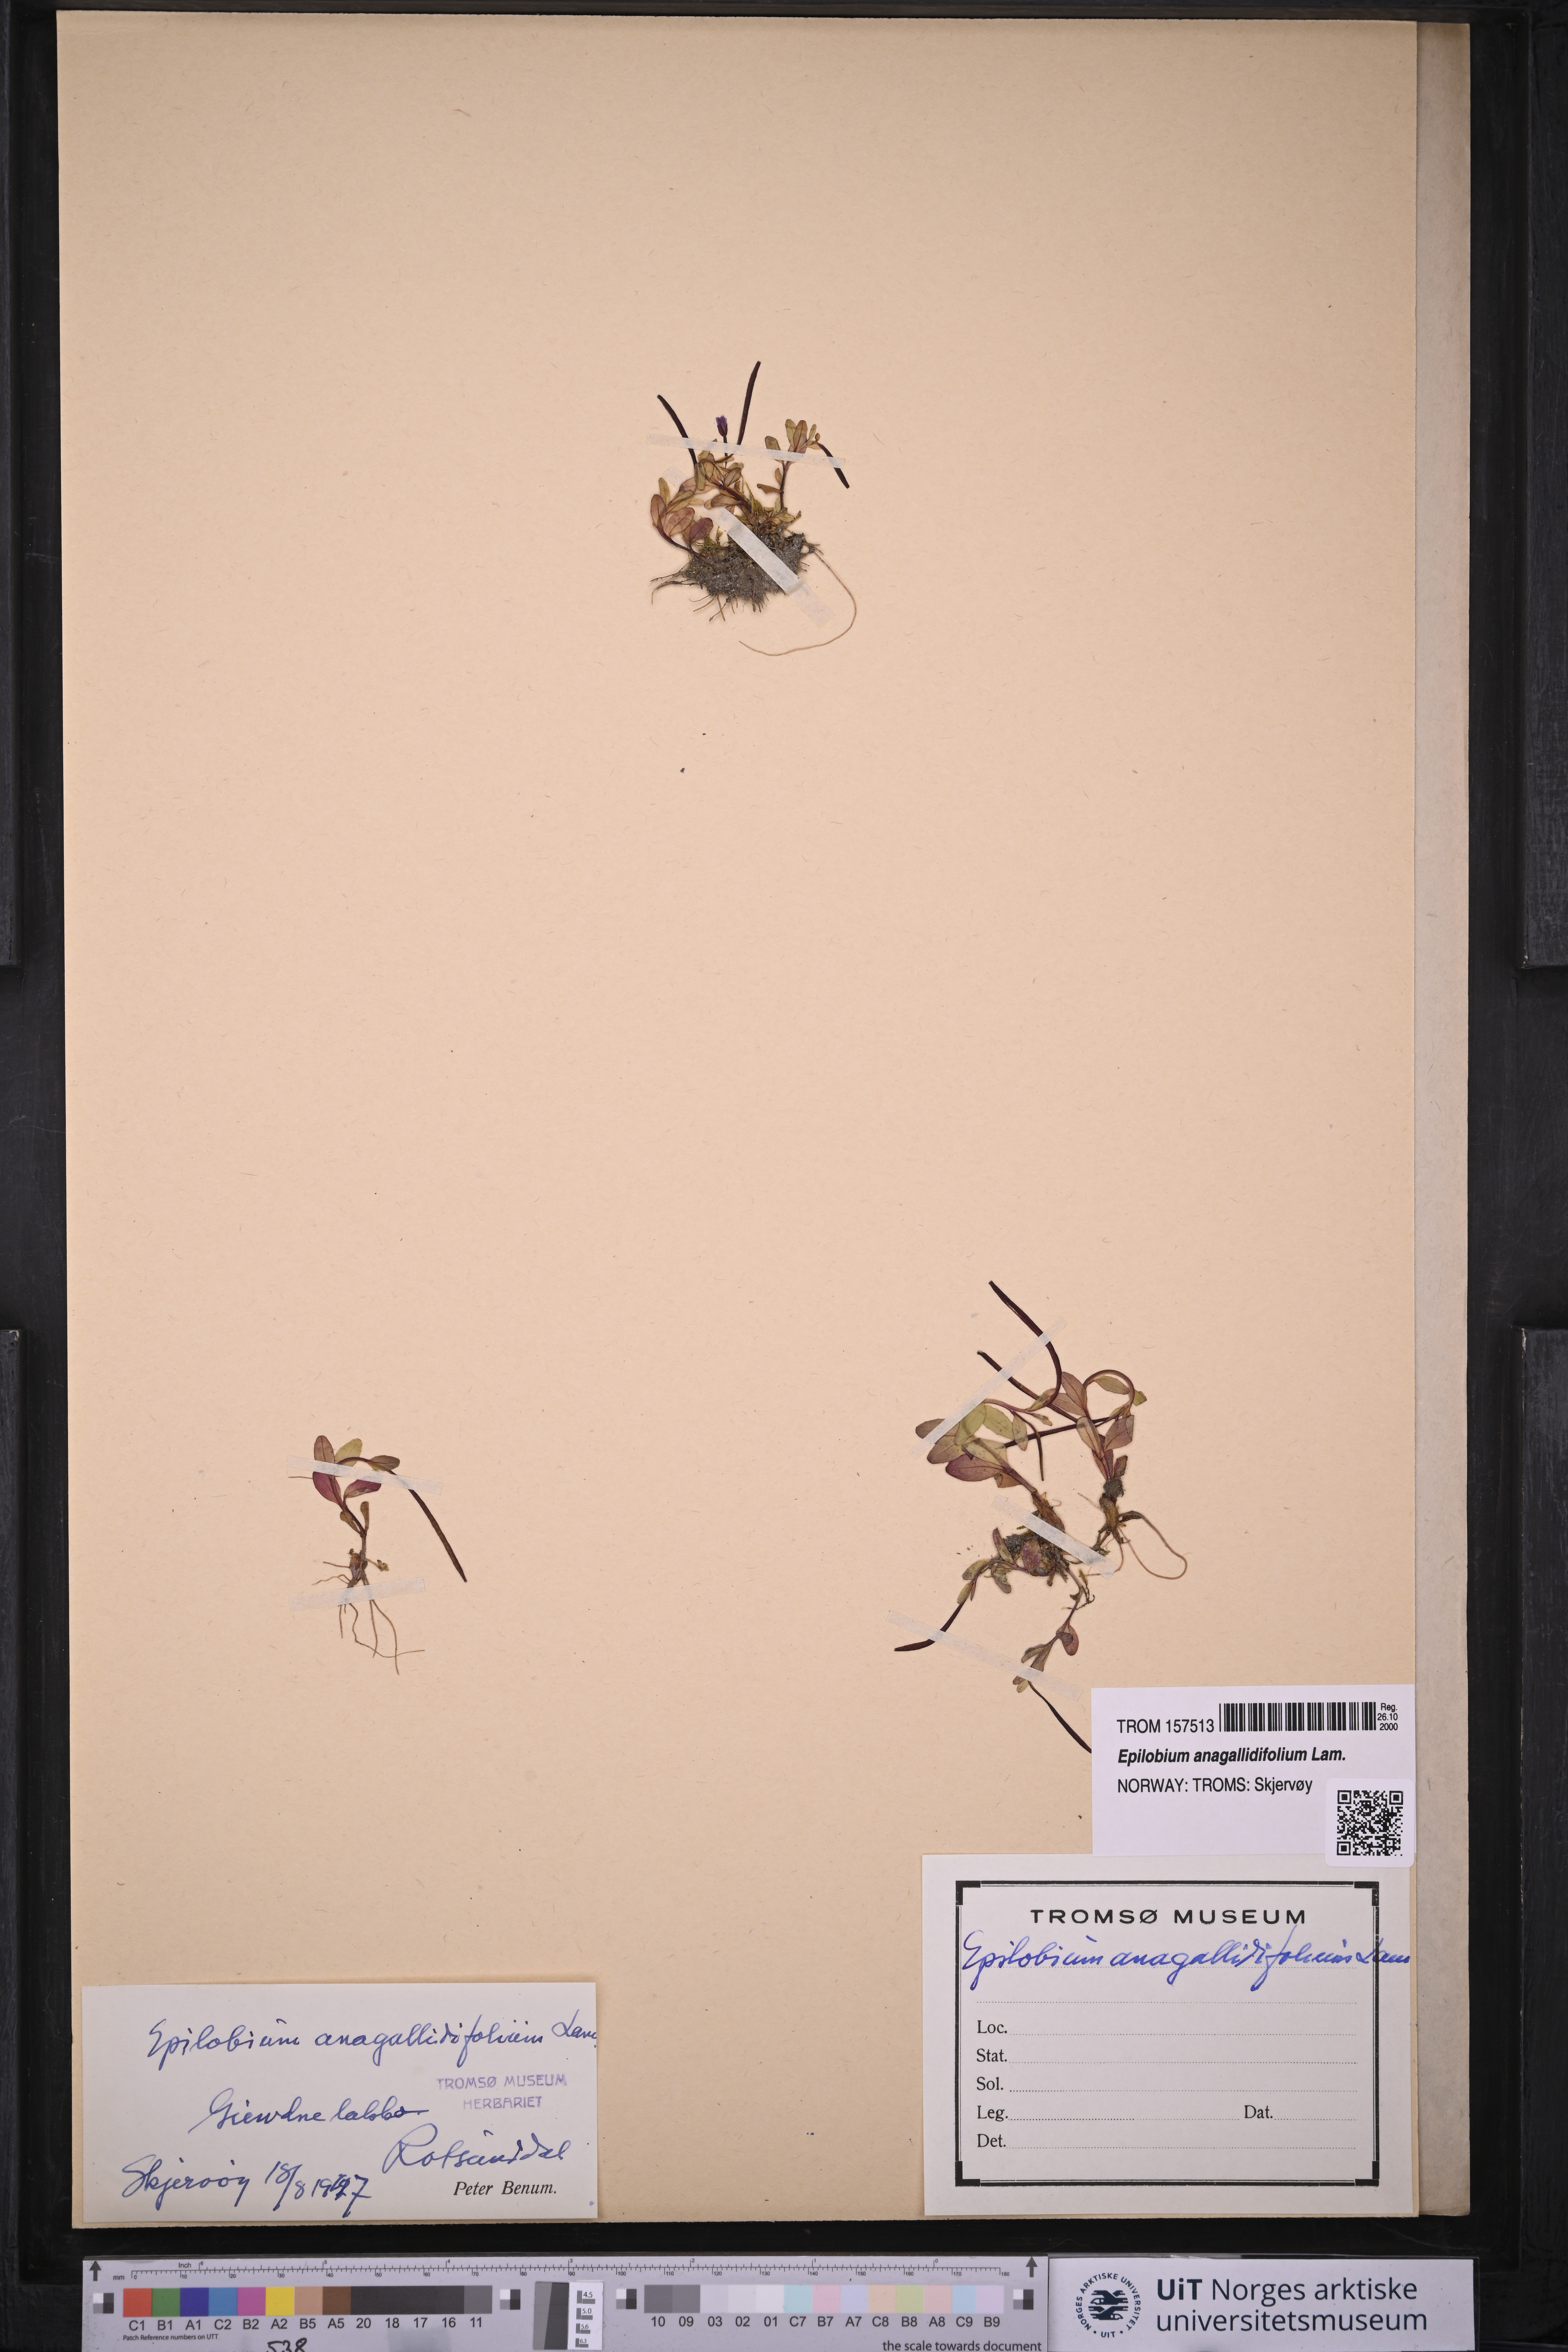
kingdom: Plantae
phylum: Tracheophyta
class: Magnoliopsida
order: Myrtales
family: Onagraceae
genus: Epilobium
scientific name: Epilobium anagallidifolium
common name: Alpine willowherb
